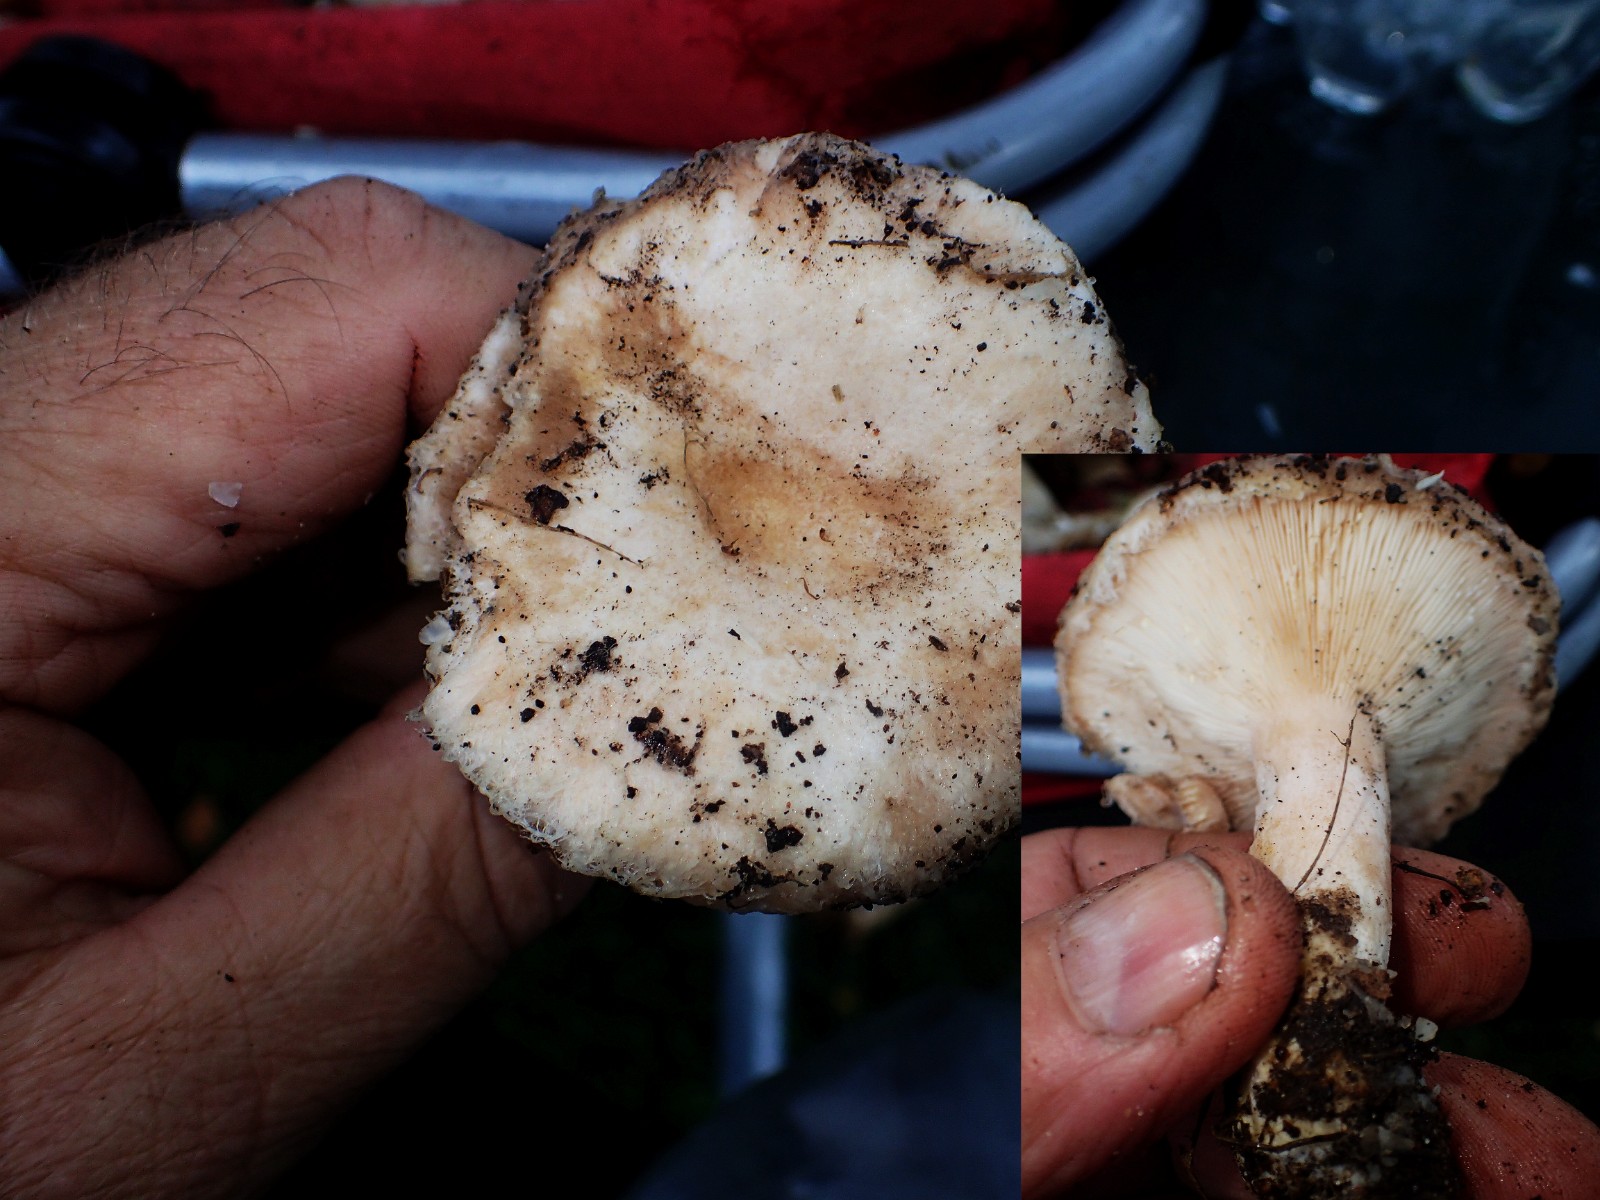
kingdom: Fungi
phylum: Basidiomycota
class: Agaricomycetes
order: Russulales
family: Russulaceae
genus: Lactarius
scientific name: Lactarius torminosus
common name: skægget mælkehat
